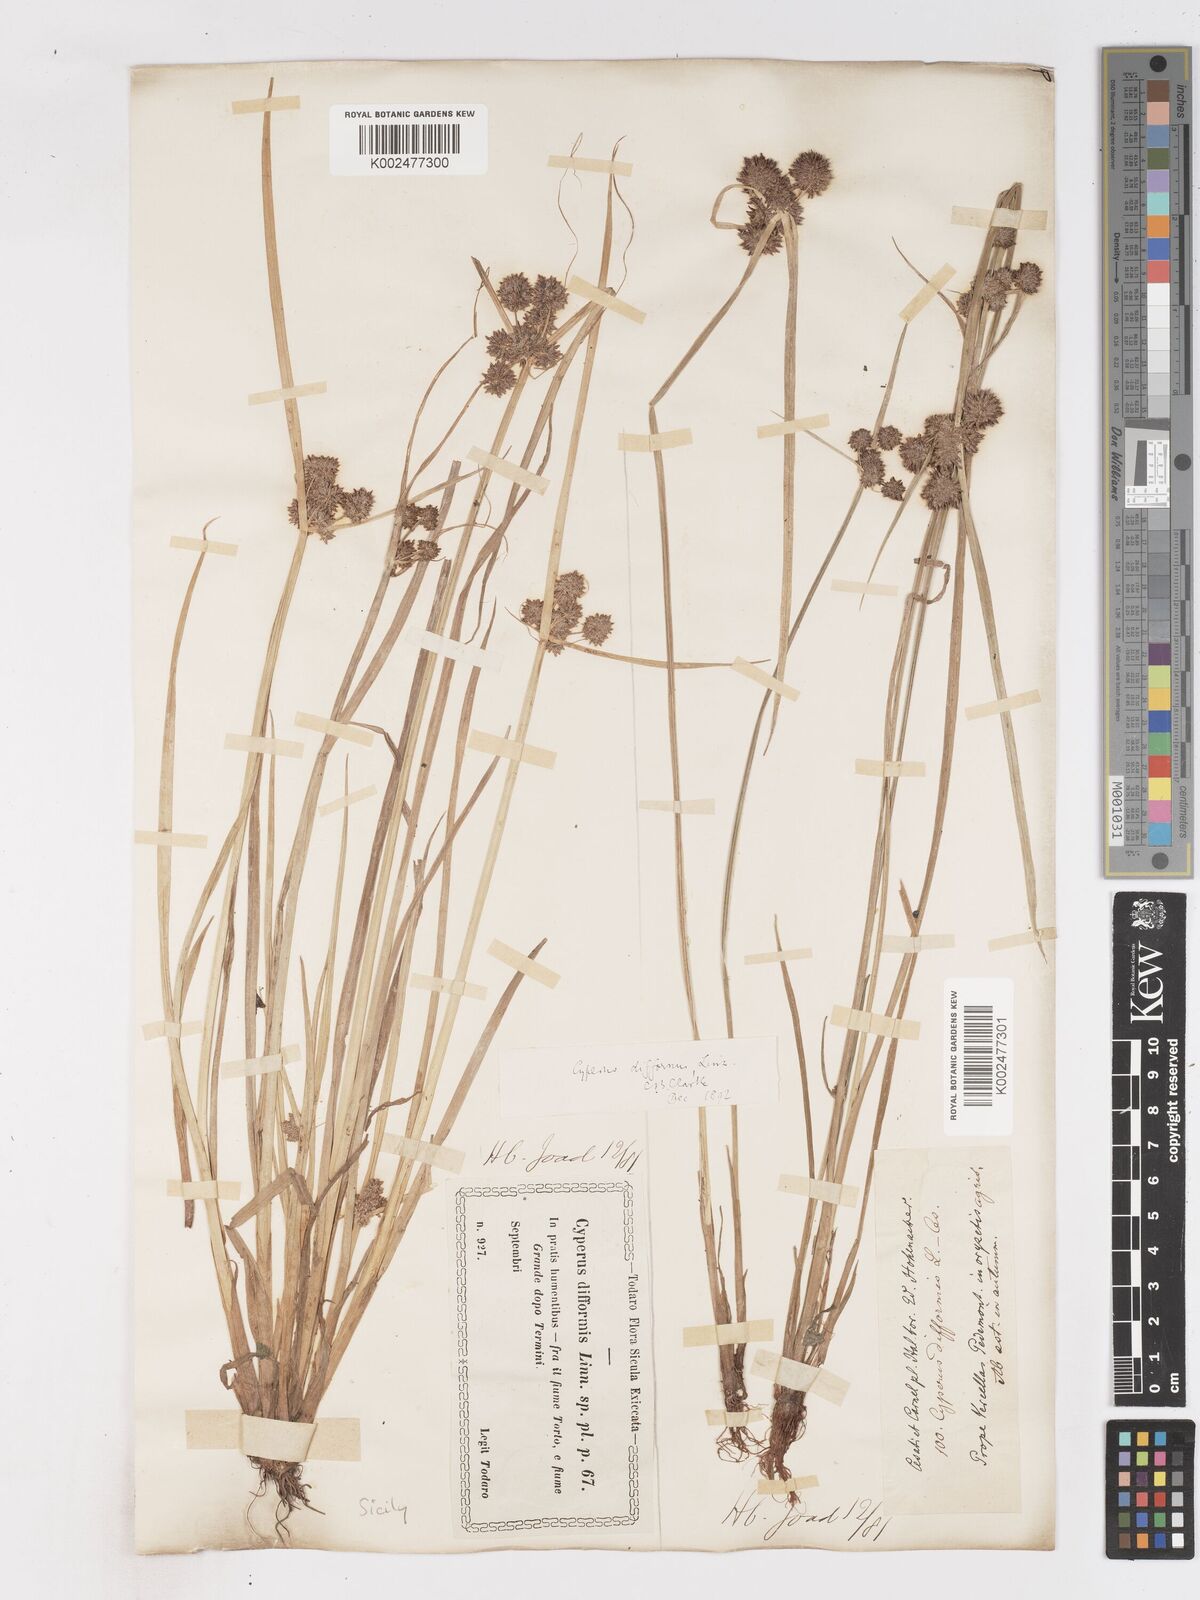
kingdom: Plantae
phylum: Tracheophyta
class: Liliopsida
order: Poales
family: Cyperaceae
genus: Cyperus
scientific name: Cyperus difformis
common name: Variable flatsedge
